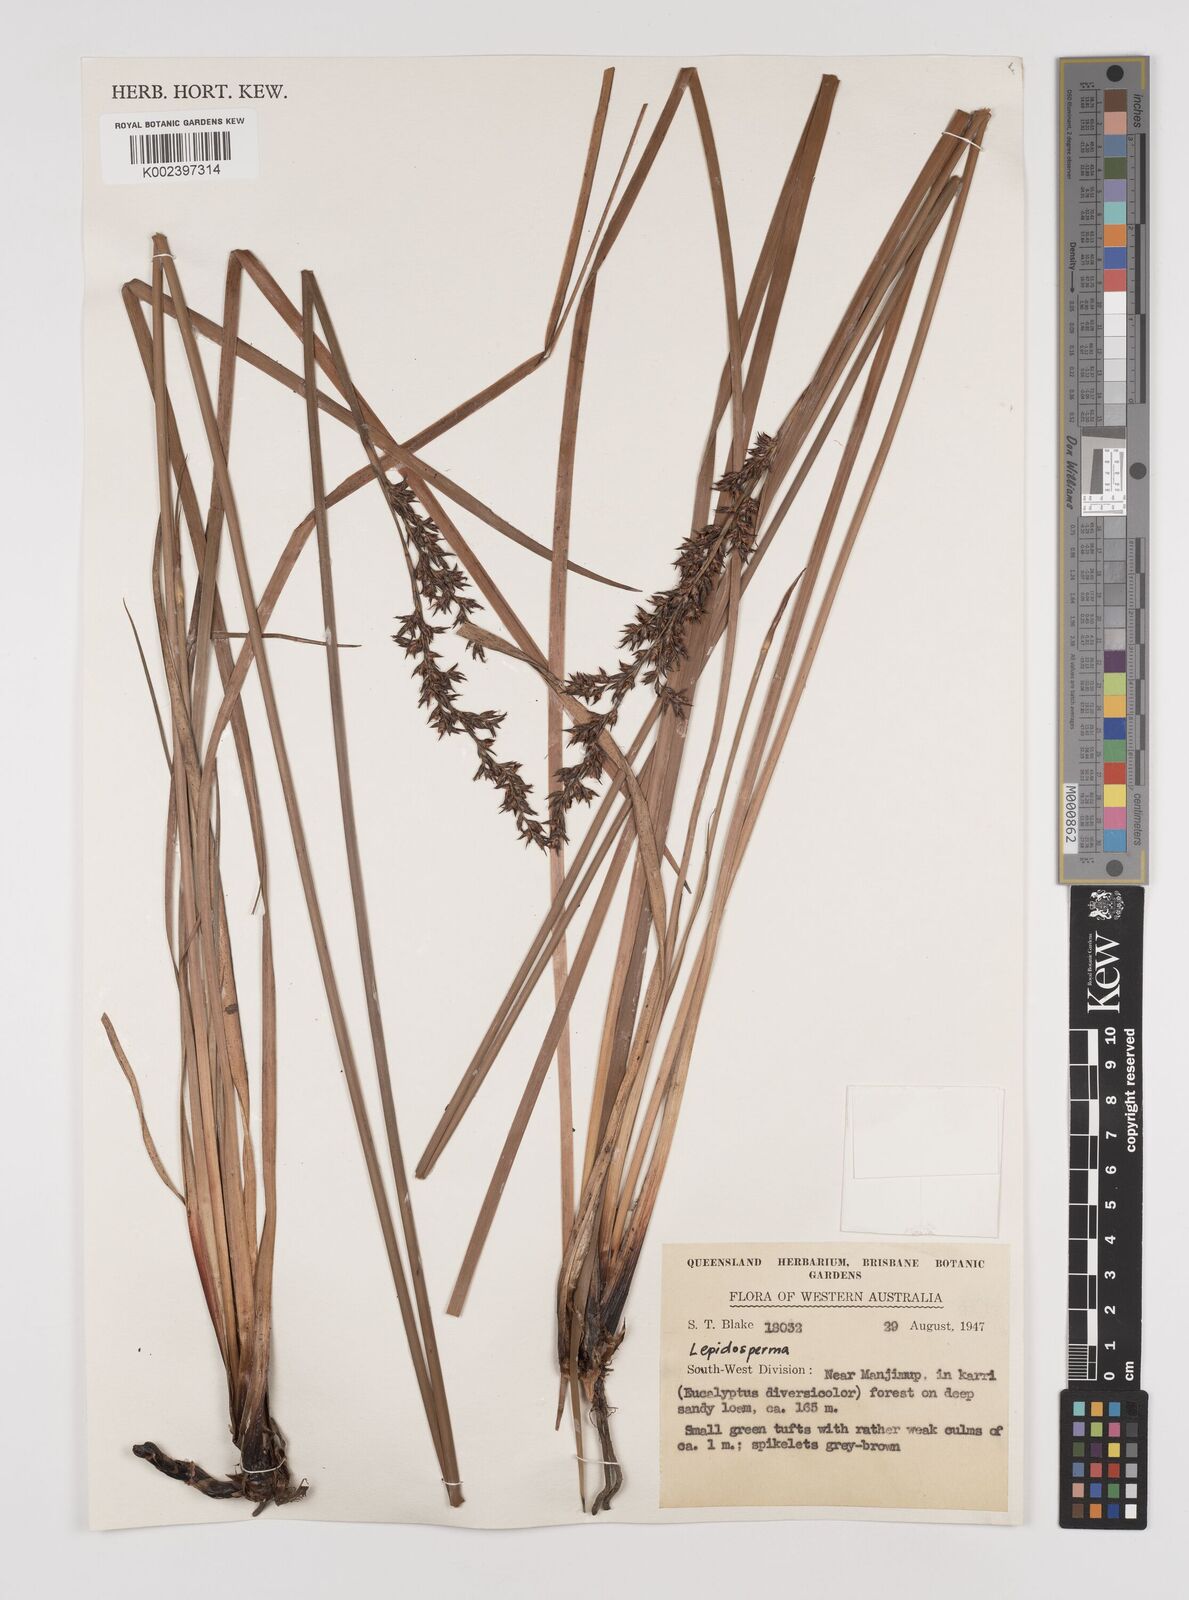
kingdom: Plantae
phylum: Tracheophyta
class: Liliopsida
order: Poales
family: Cyperaceae
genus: Lepidosperma
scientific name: Lepidosperma
